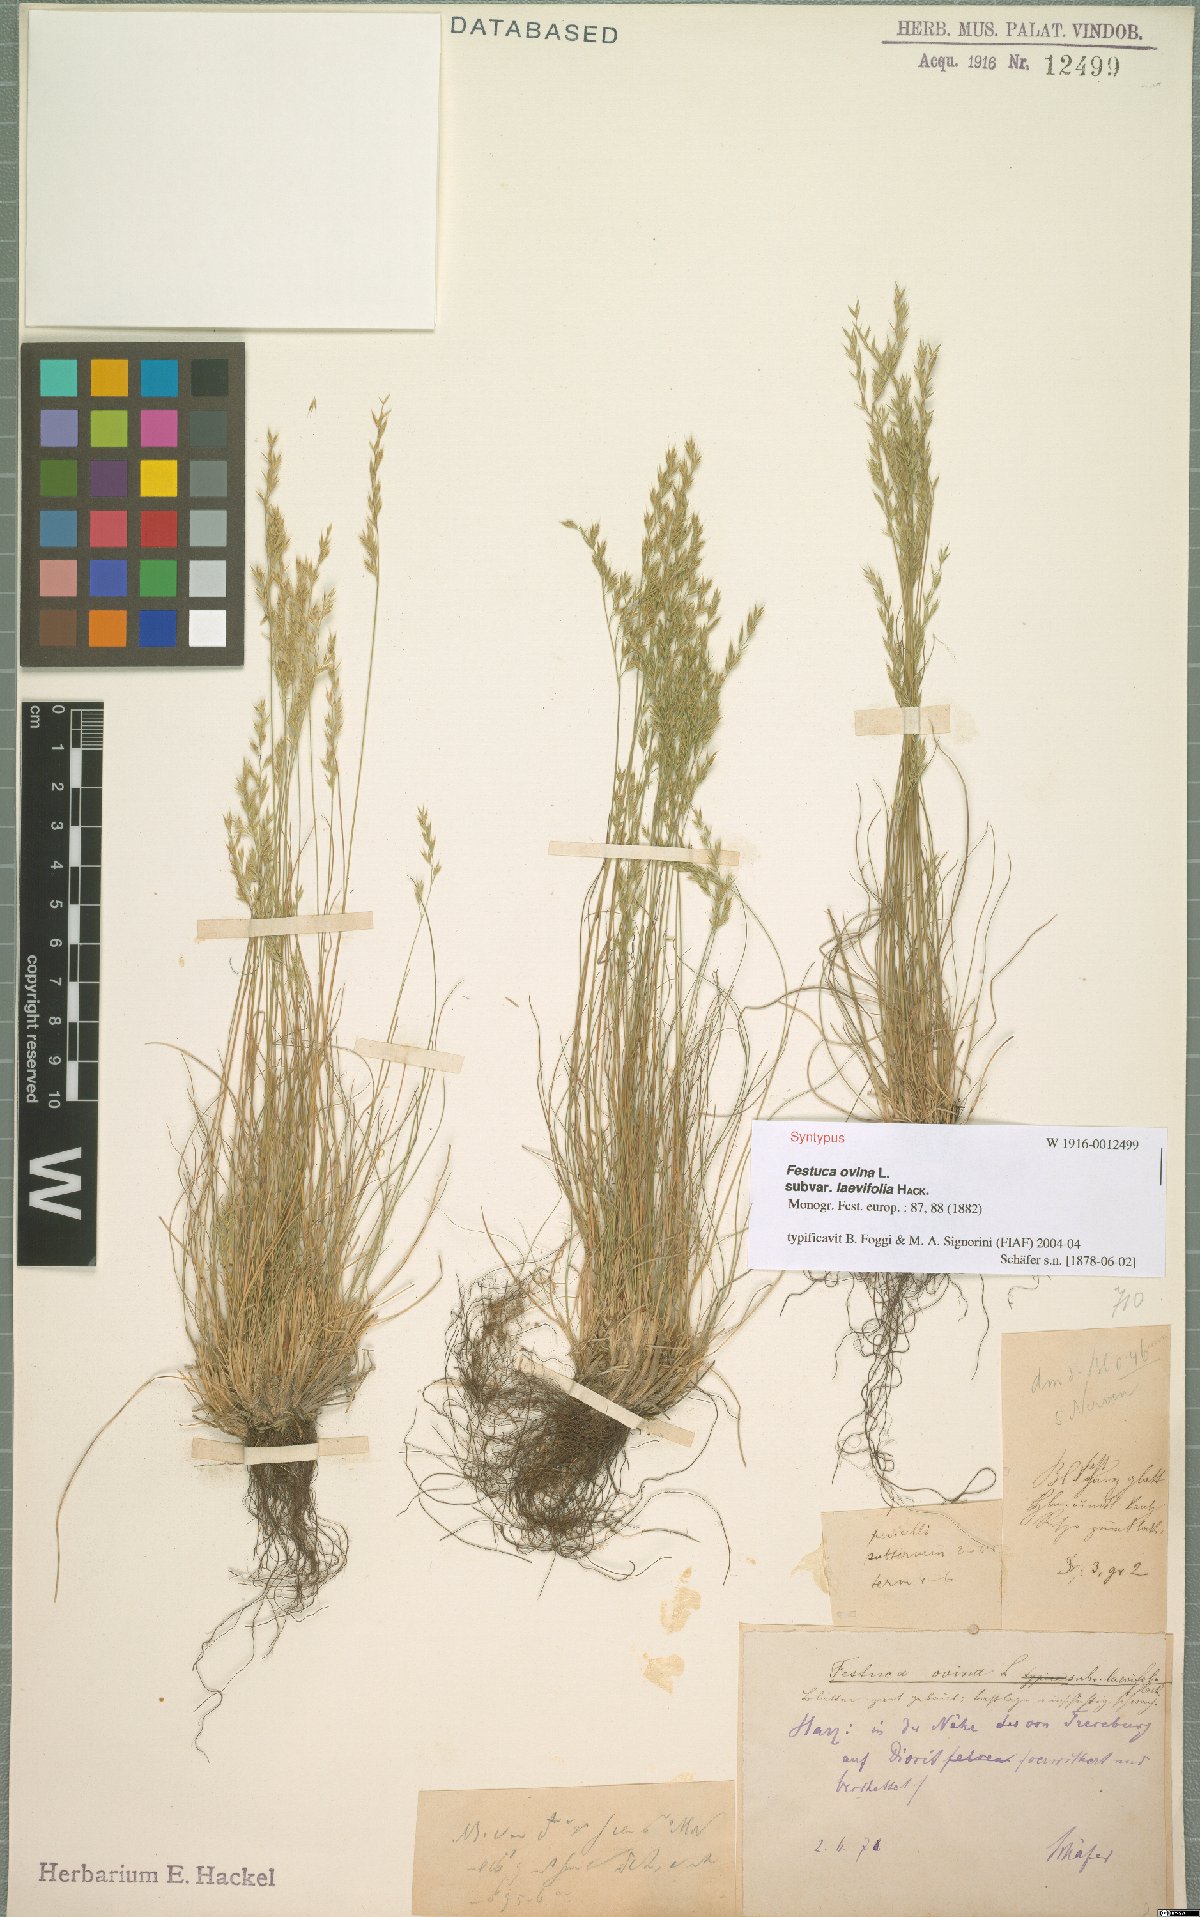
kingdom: Plantae
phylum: Tracheophyta
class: Liliopsida
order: Poales
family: Poaceae
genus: Festuca
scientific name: Festuca ovina
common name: Sheep fescue
